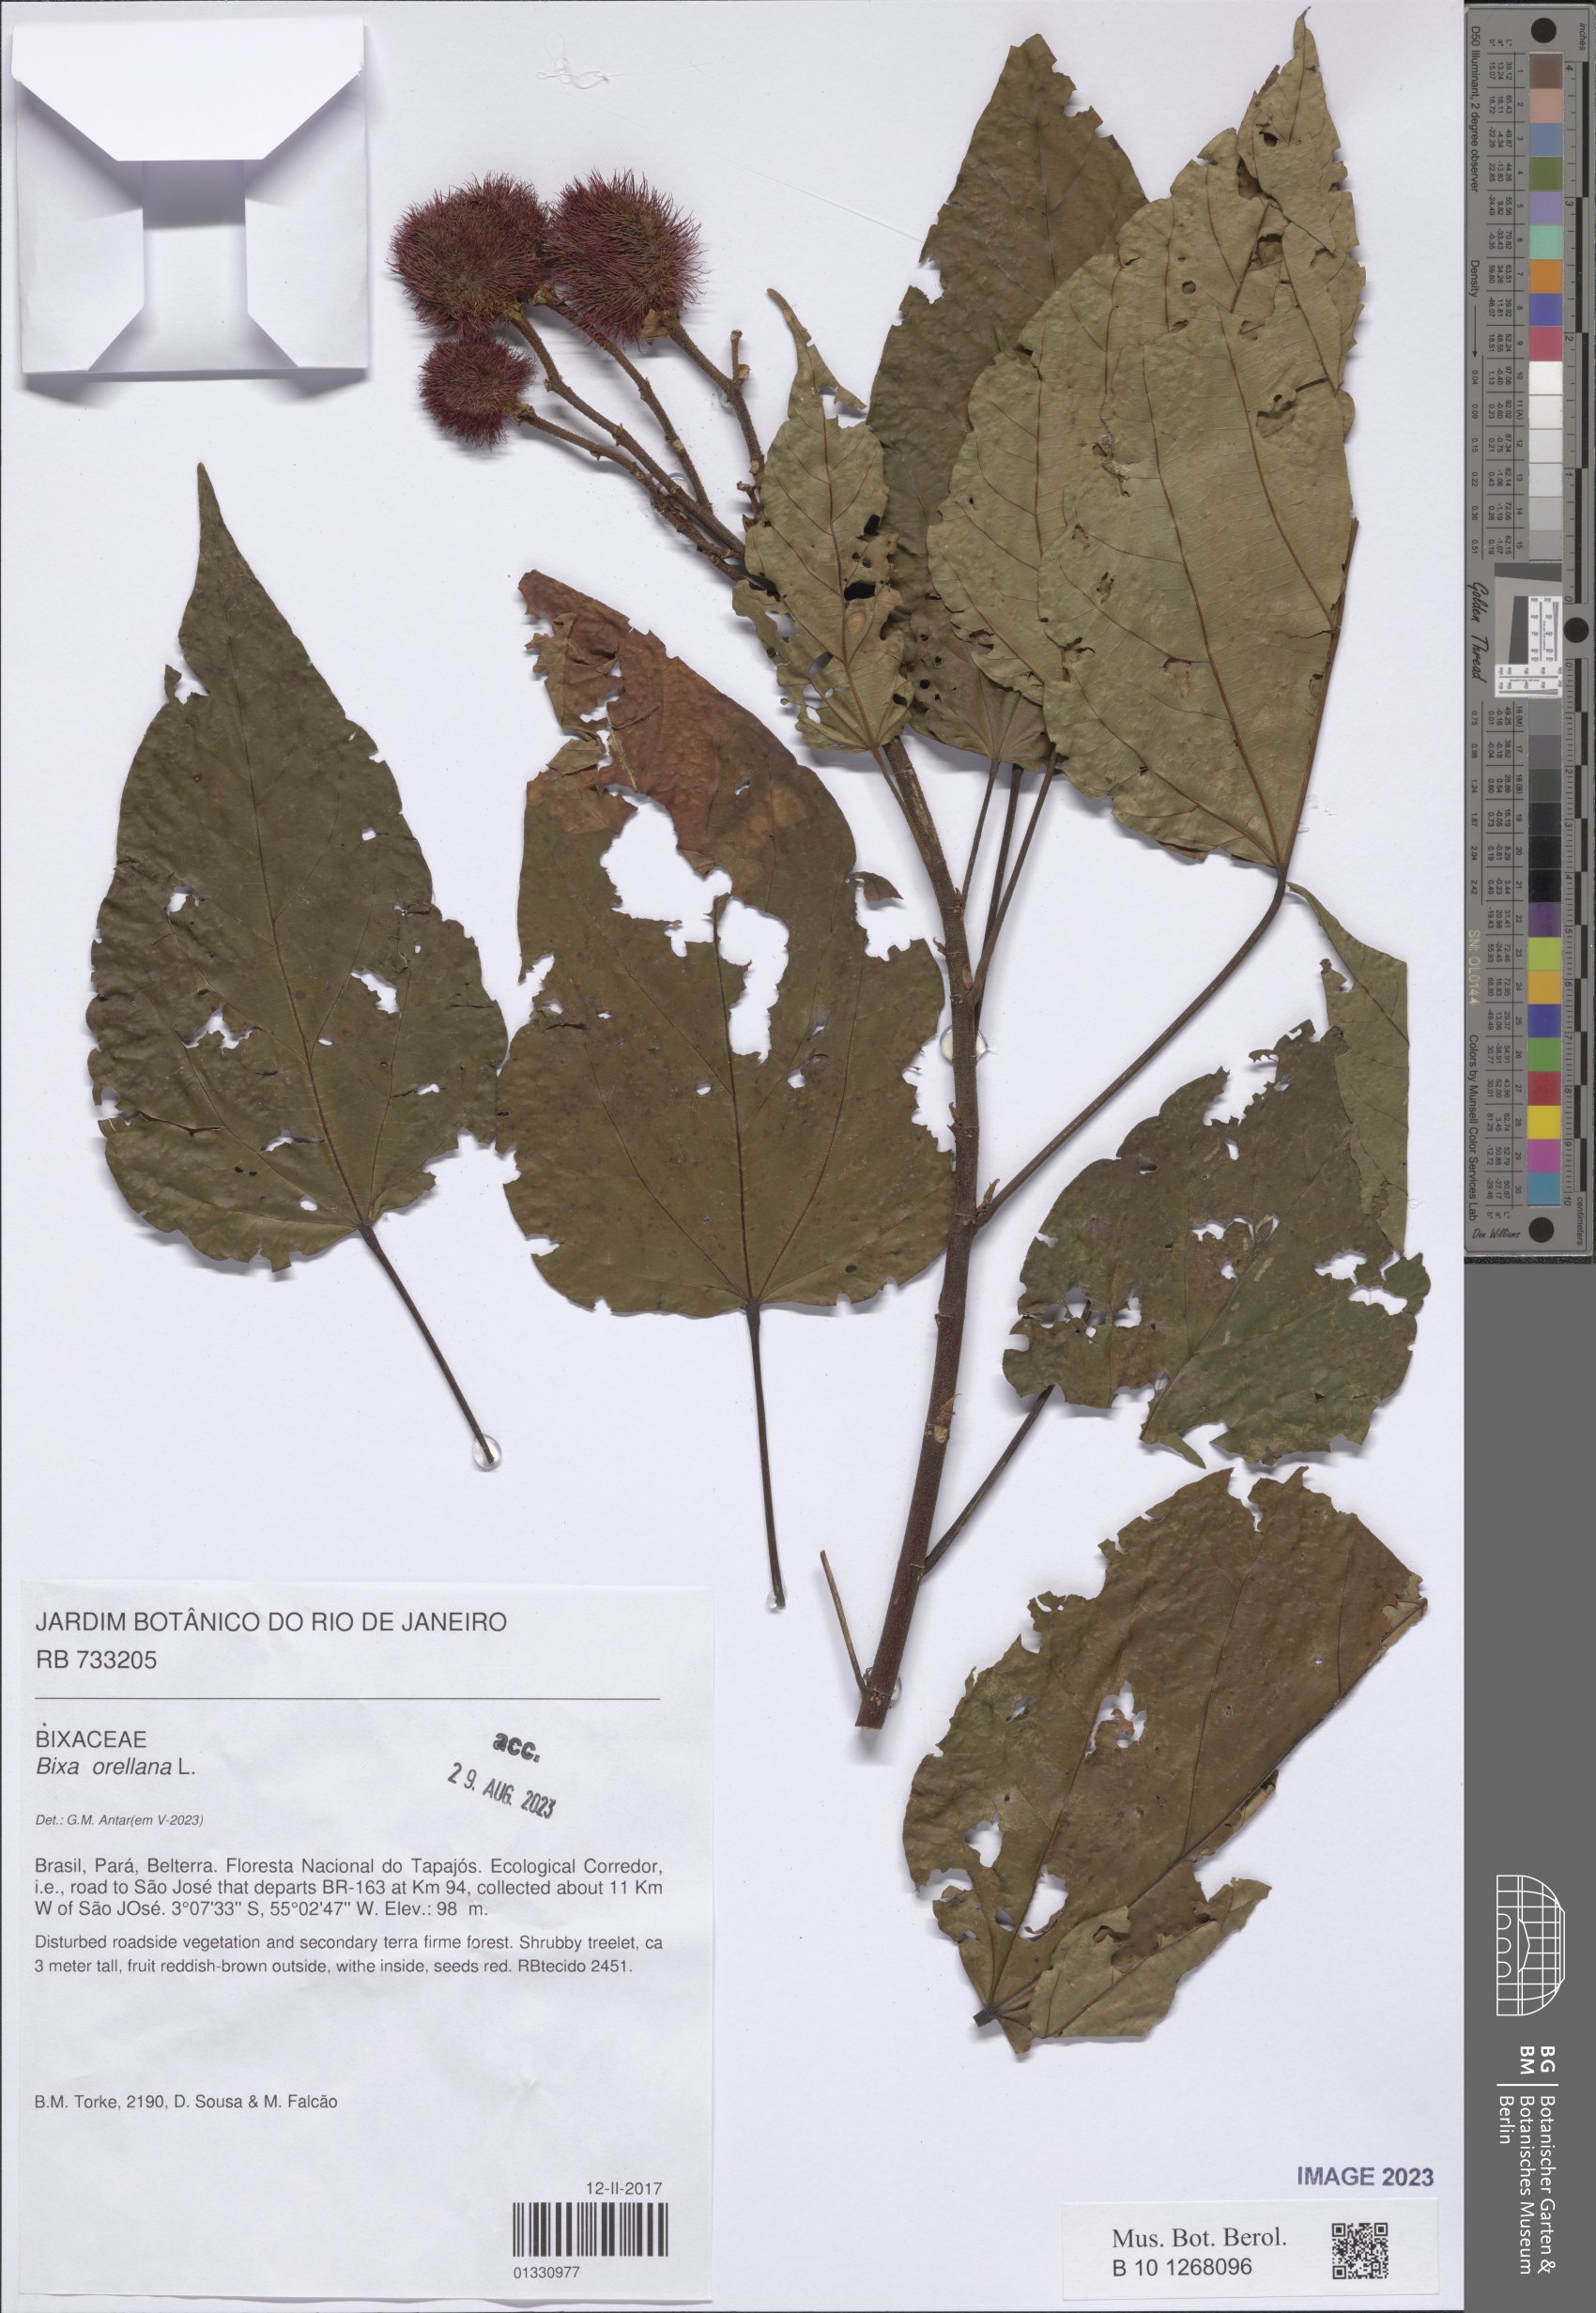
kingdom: Plantae
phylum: Tracheophyta
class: Magnoliopsida
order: Malvales
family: Bixaceae
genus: Bixa
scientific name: Bixa orellana
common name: Lipsticktree
